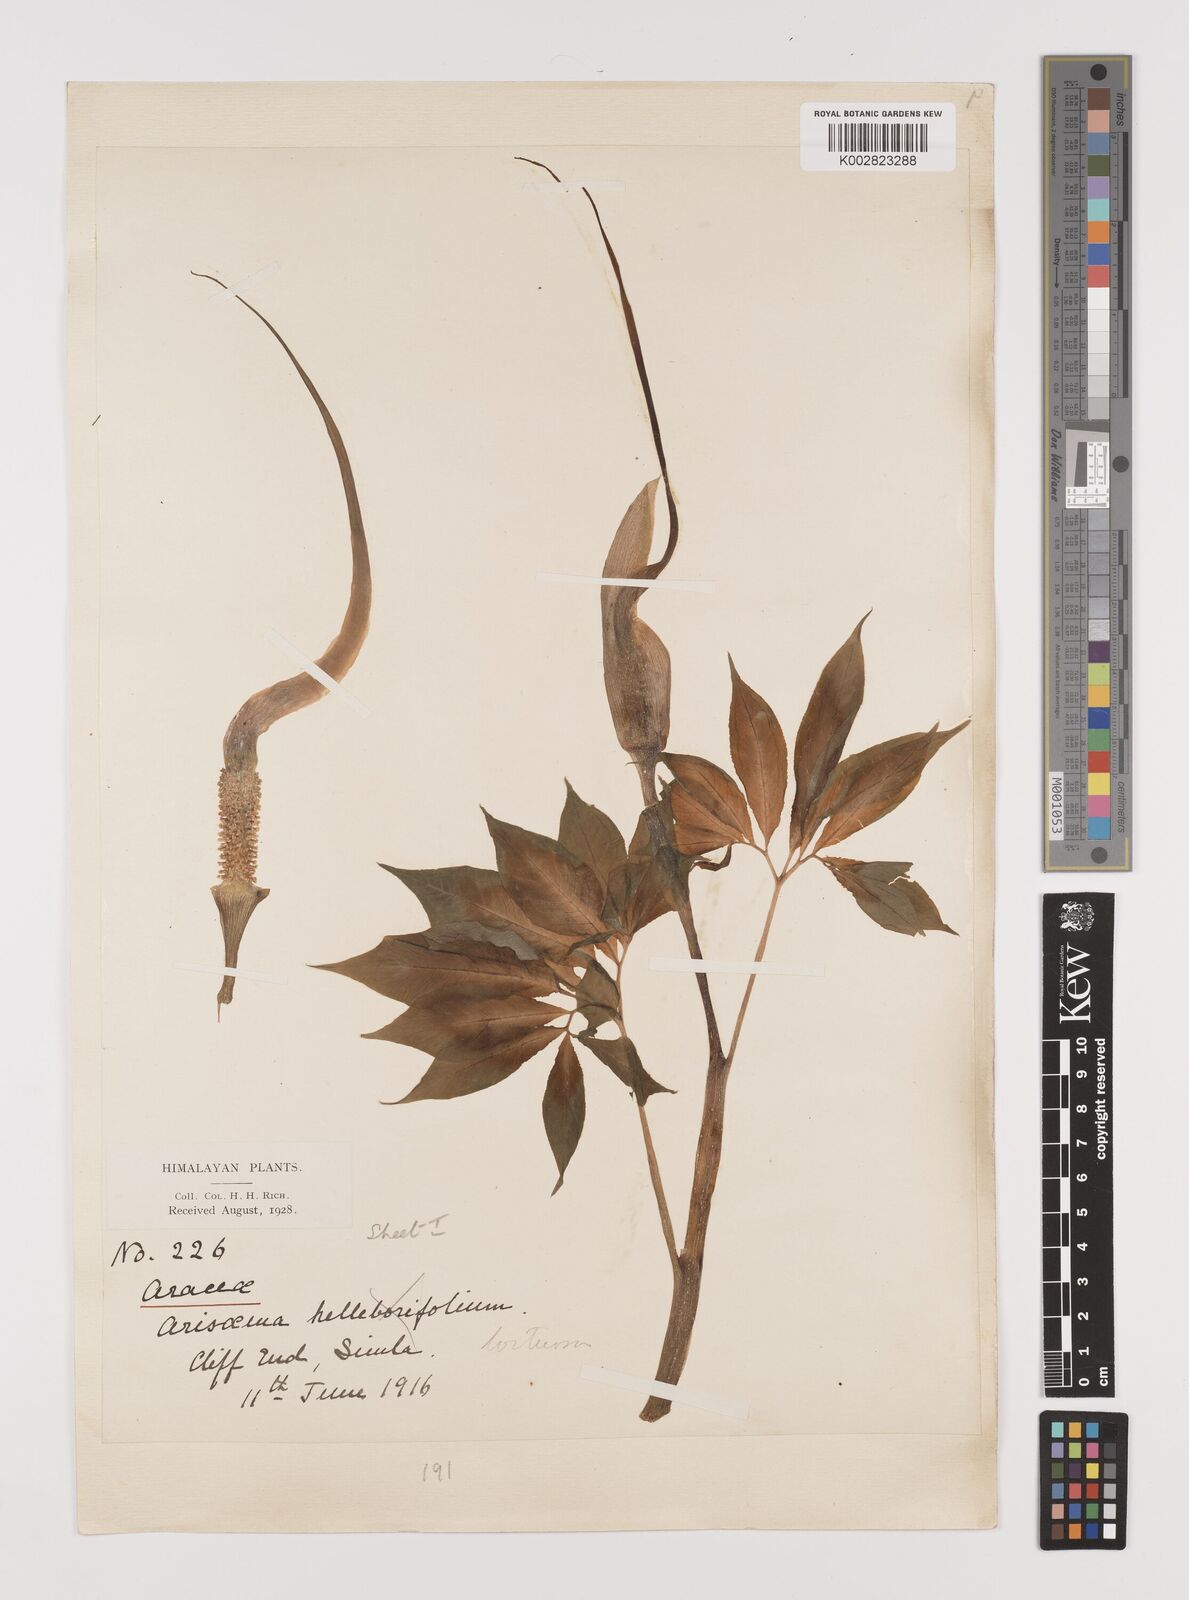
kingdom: Plantae
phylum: Tracheophyta
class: Liliopsida
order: Alismatales
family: Araceae
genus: Arisaema
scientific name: Arisaema tortuosum
